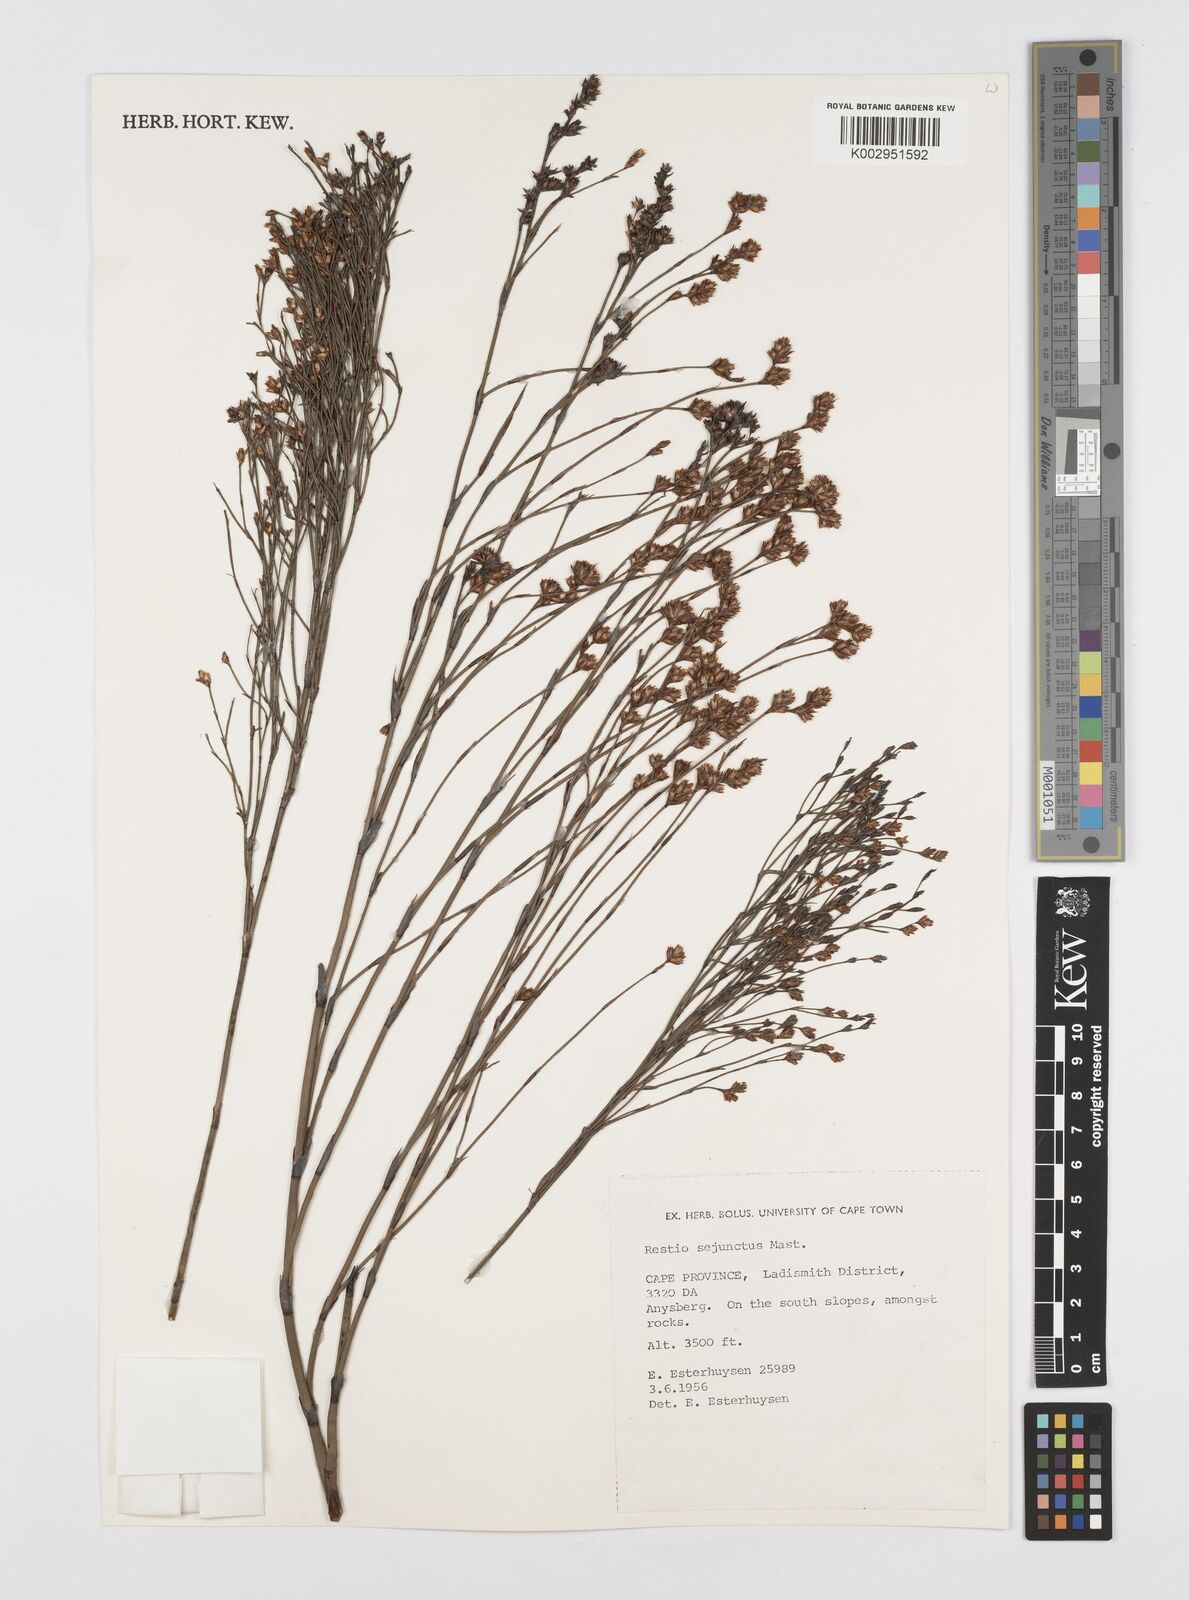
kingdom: Plantae
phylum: Tracheophyta
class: Liliopsida
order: Poales
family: Restionaceae
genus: Restio
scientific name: Restio sejunctus
